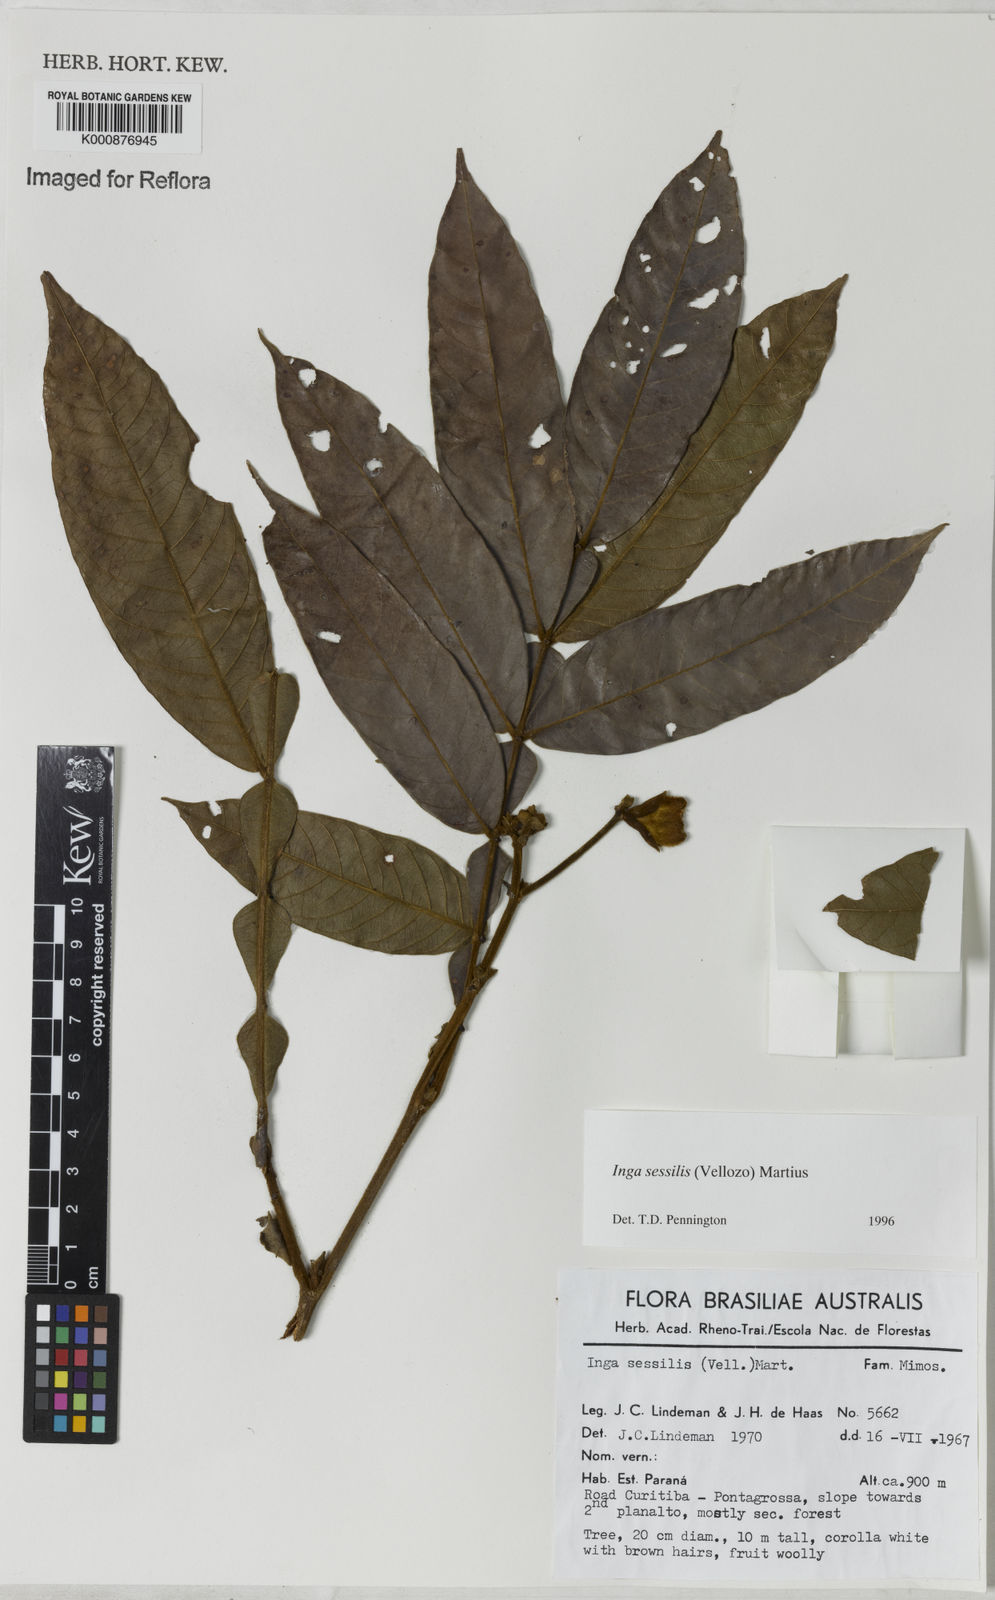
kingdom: Plantae
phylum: Tracheophyta
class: Magnoliopsida
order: Fabales
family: Fabaceae
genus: Inga
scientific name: Inga sessilis
